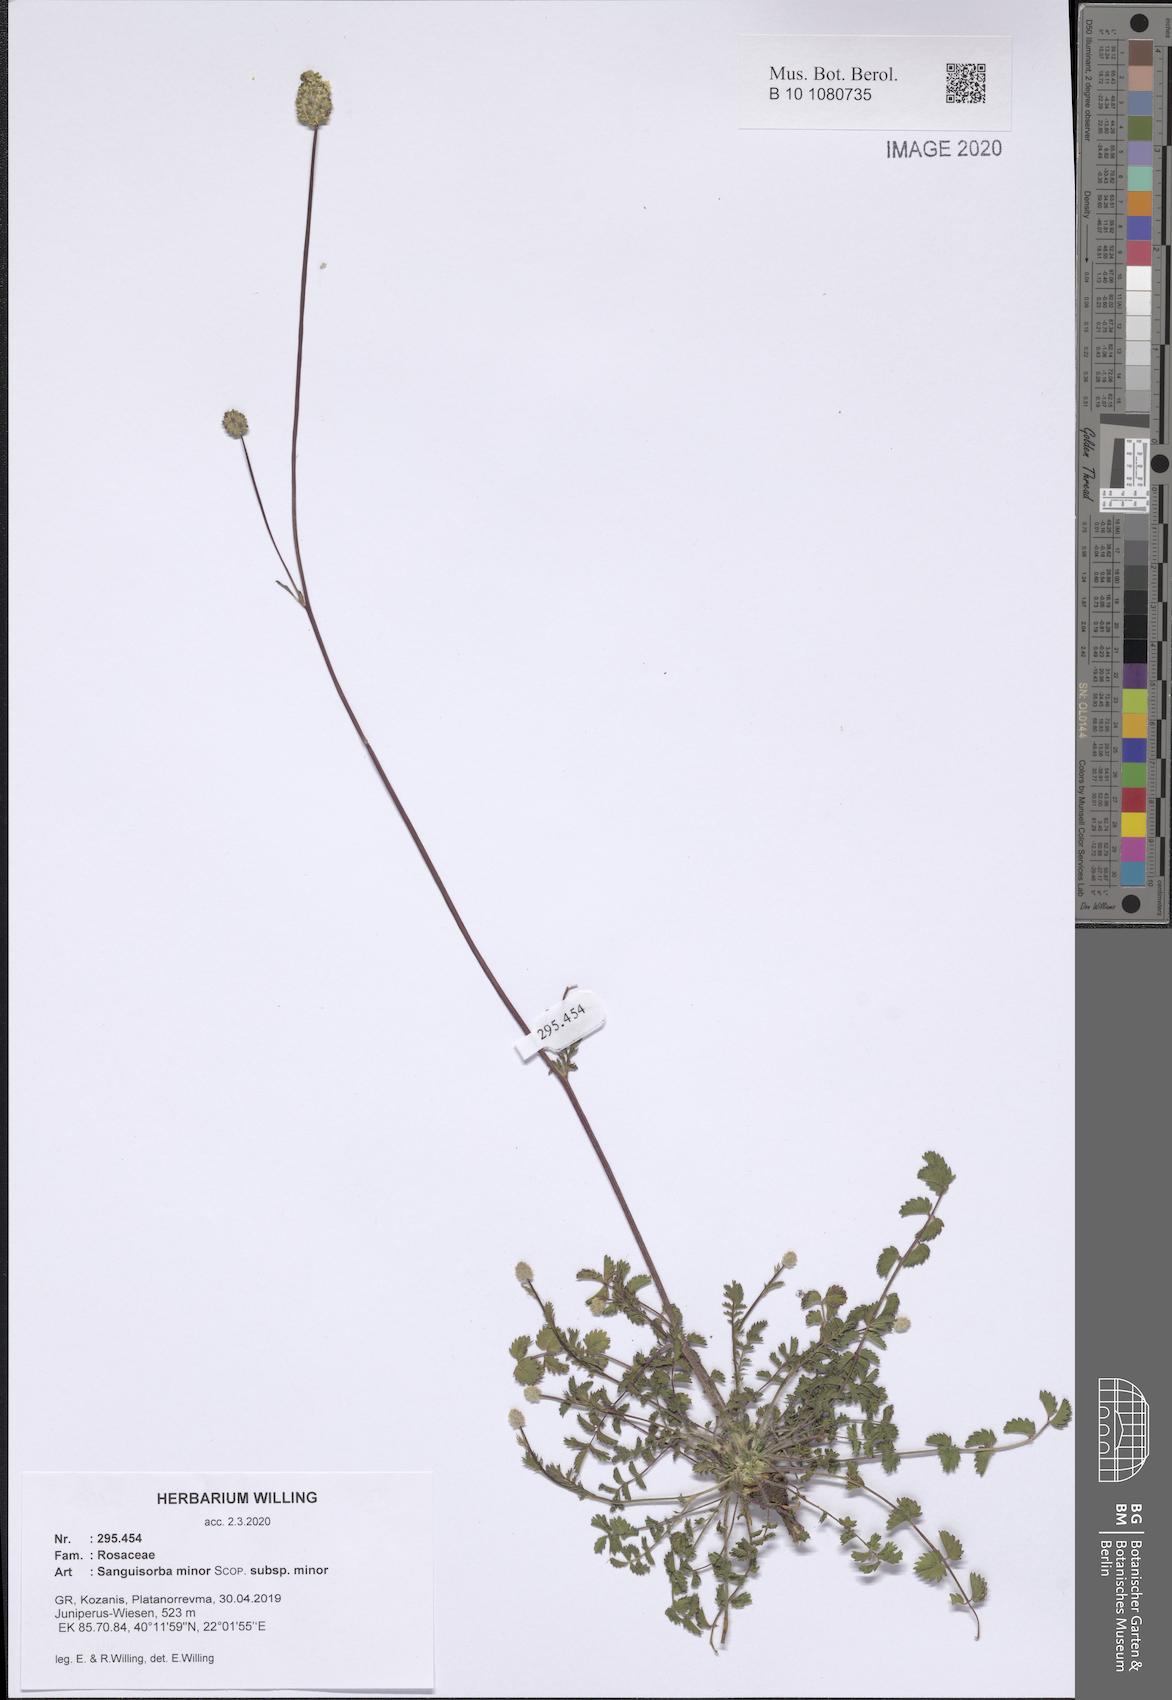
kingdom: Plantae
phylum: Tracheophyta
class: Magnoliopsida
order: Rosales
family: Rosaceae
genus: Poterium
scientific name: Poterium sanguisorba
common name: Salad burnet
